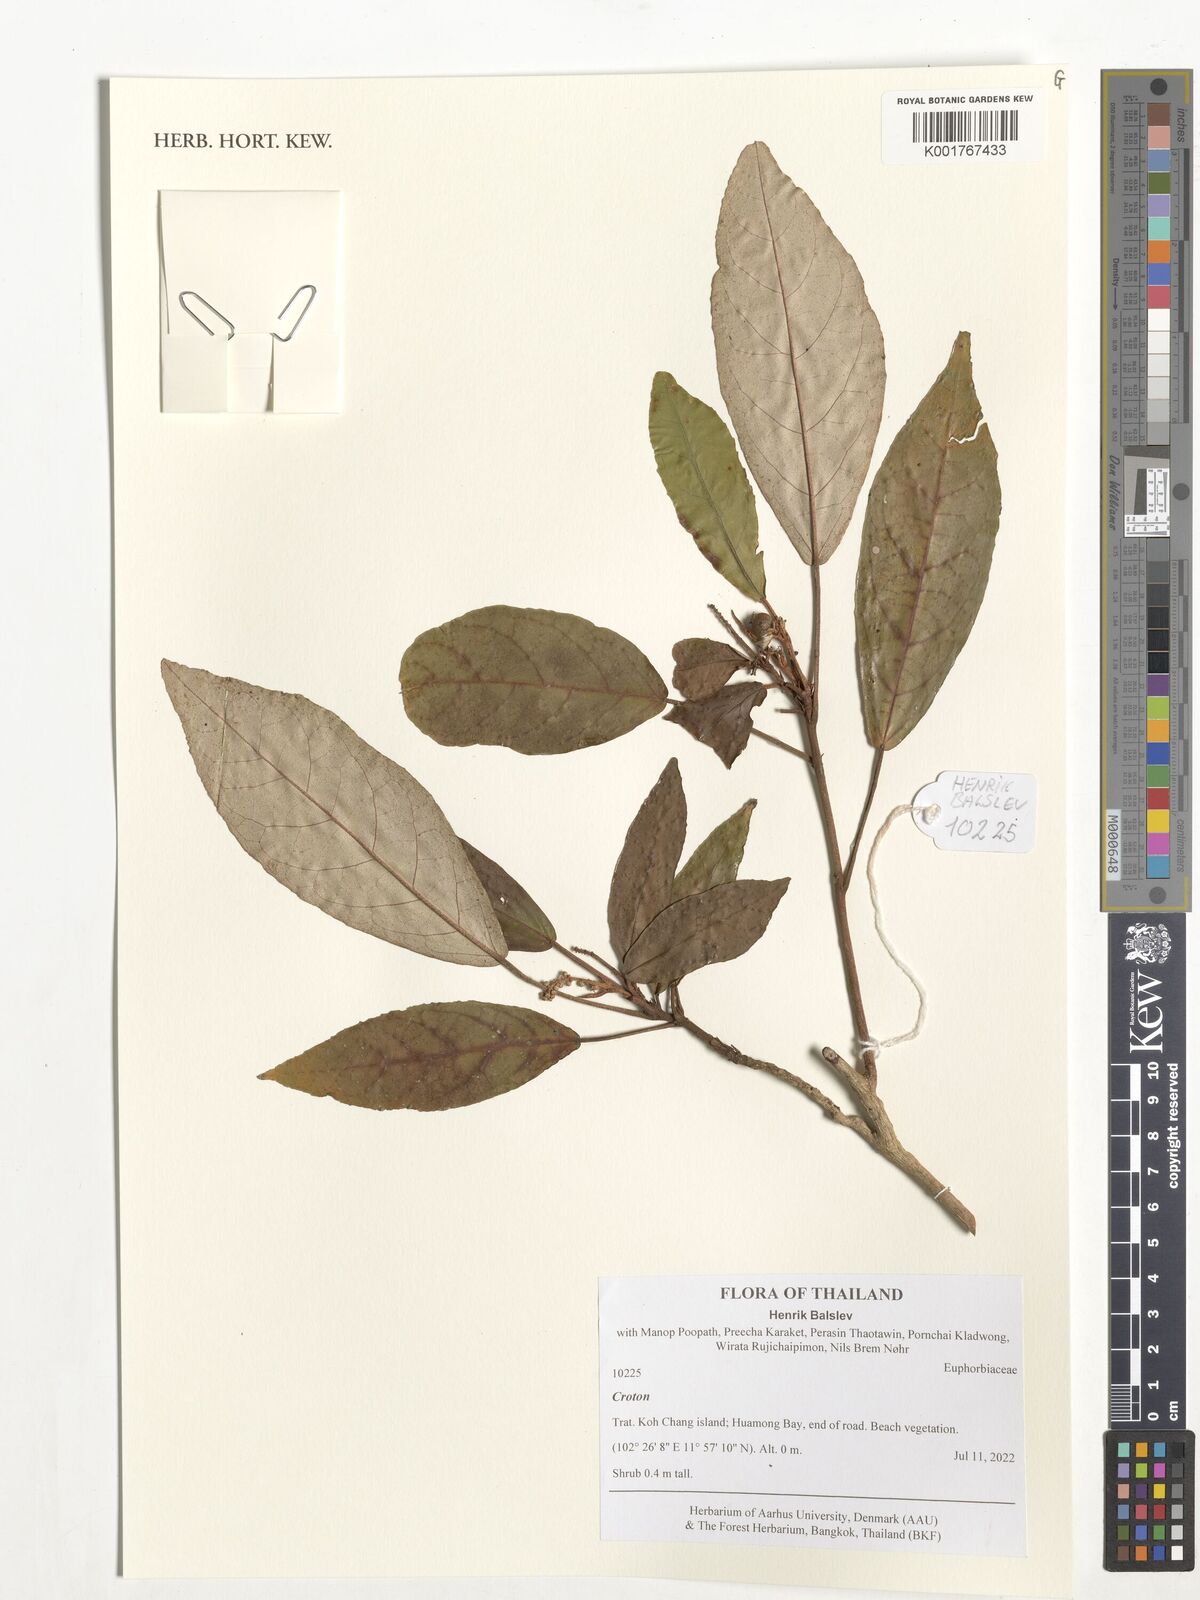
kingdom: Plantae
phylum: Tracheophyta
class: Magnoliopsida
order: Malpighiales
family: Euphorbiaceae
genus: Croton
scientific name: Croton
